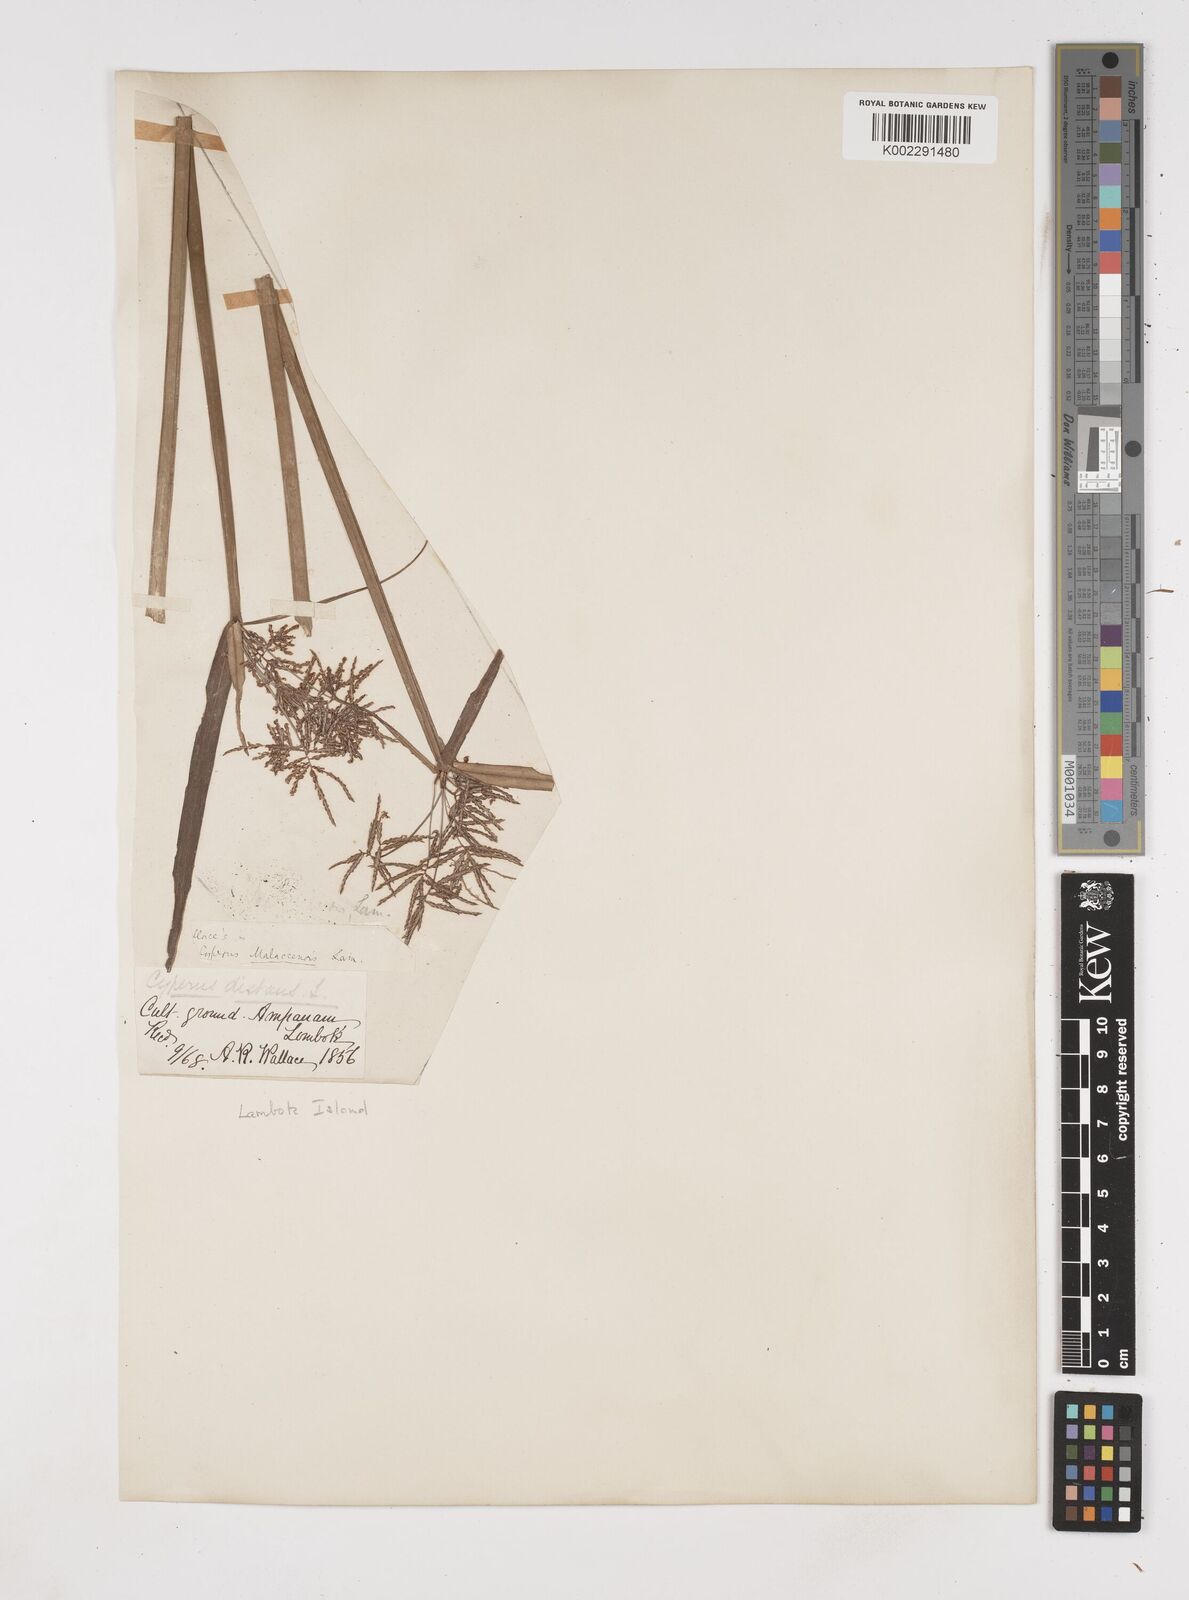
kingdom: Plantae
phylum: Tracheophyta
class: Liliopsida
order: Poales
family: Cyperaceae
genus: Cyperus
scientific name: Cyperus malaccensis
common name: Shichito matgrass
